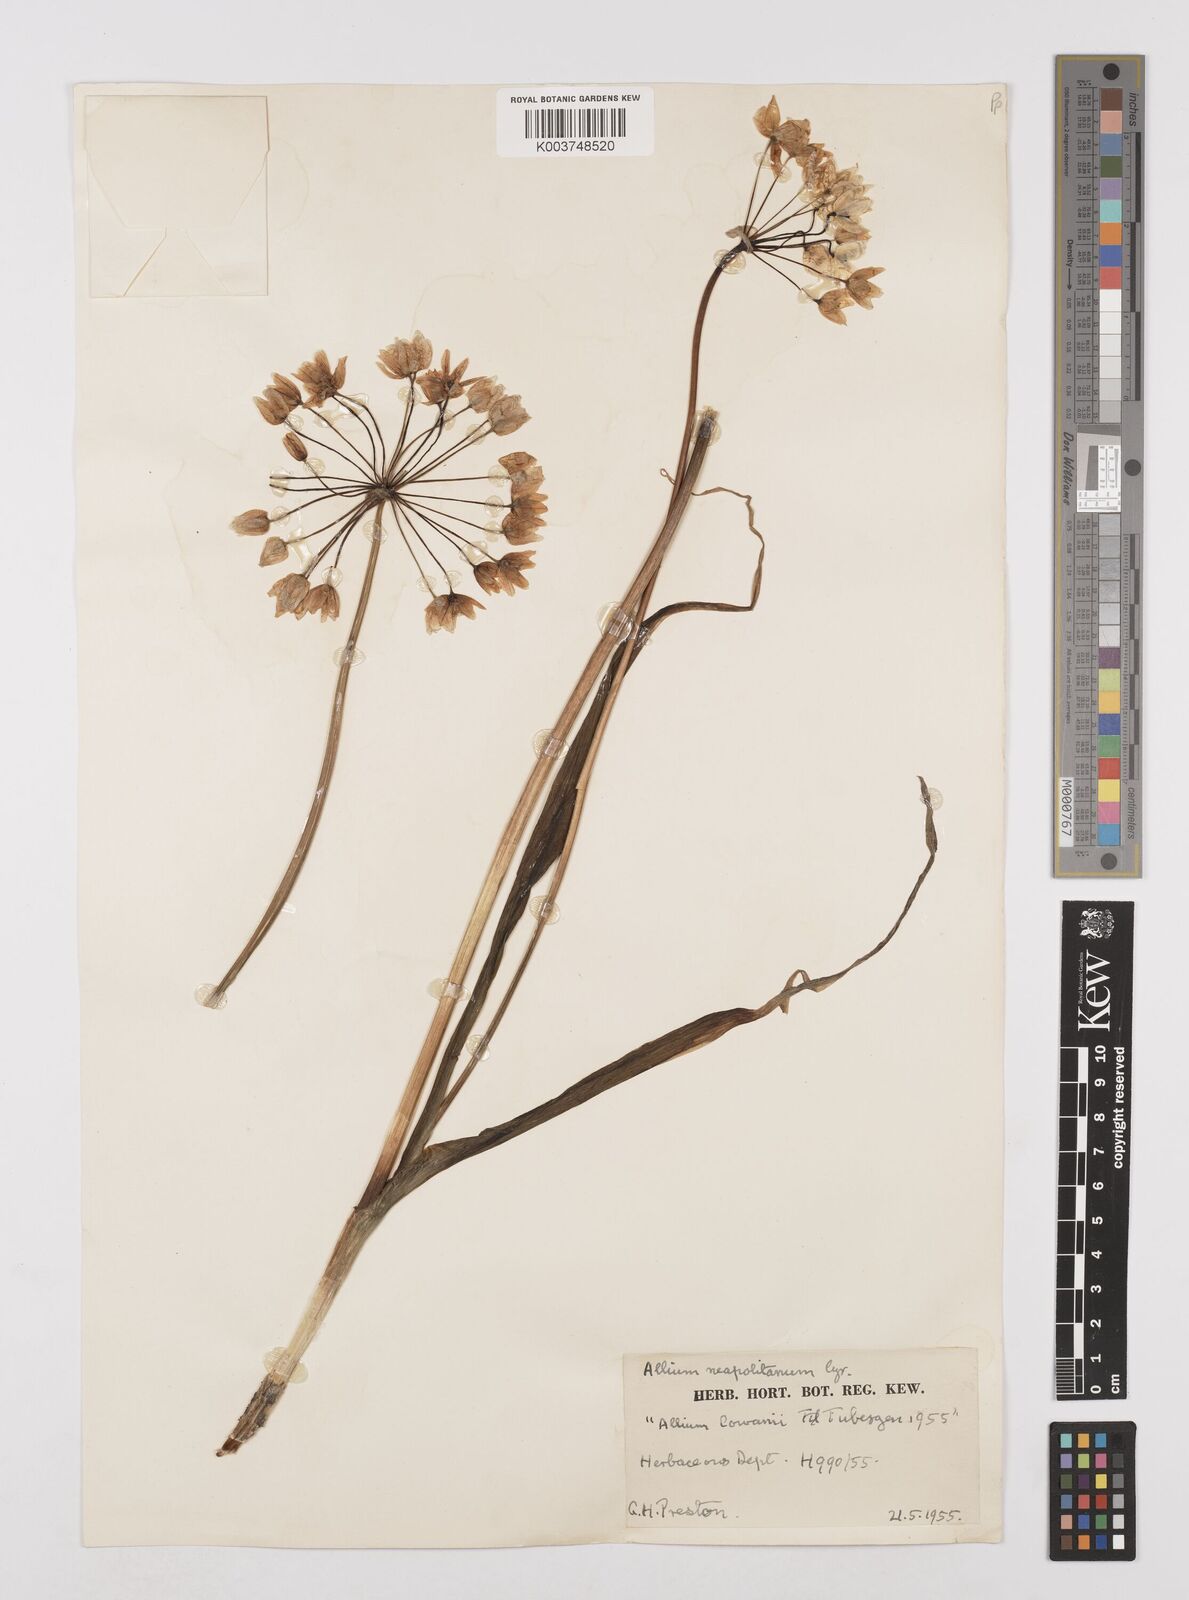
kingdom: Plantae
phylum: Tracheophyta
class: Liliopsida
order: Asparagales
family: Amaryllidaceae
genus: Allium
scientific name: Allium neapolitanum
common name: Neapolitan garlic
